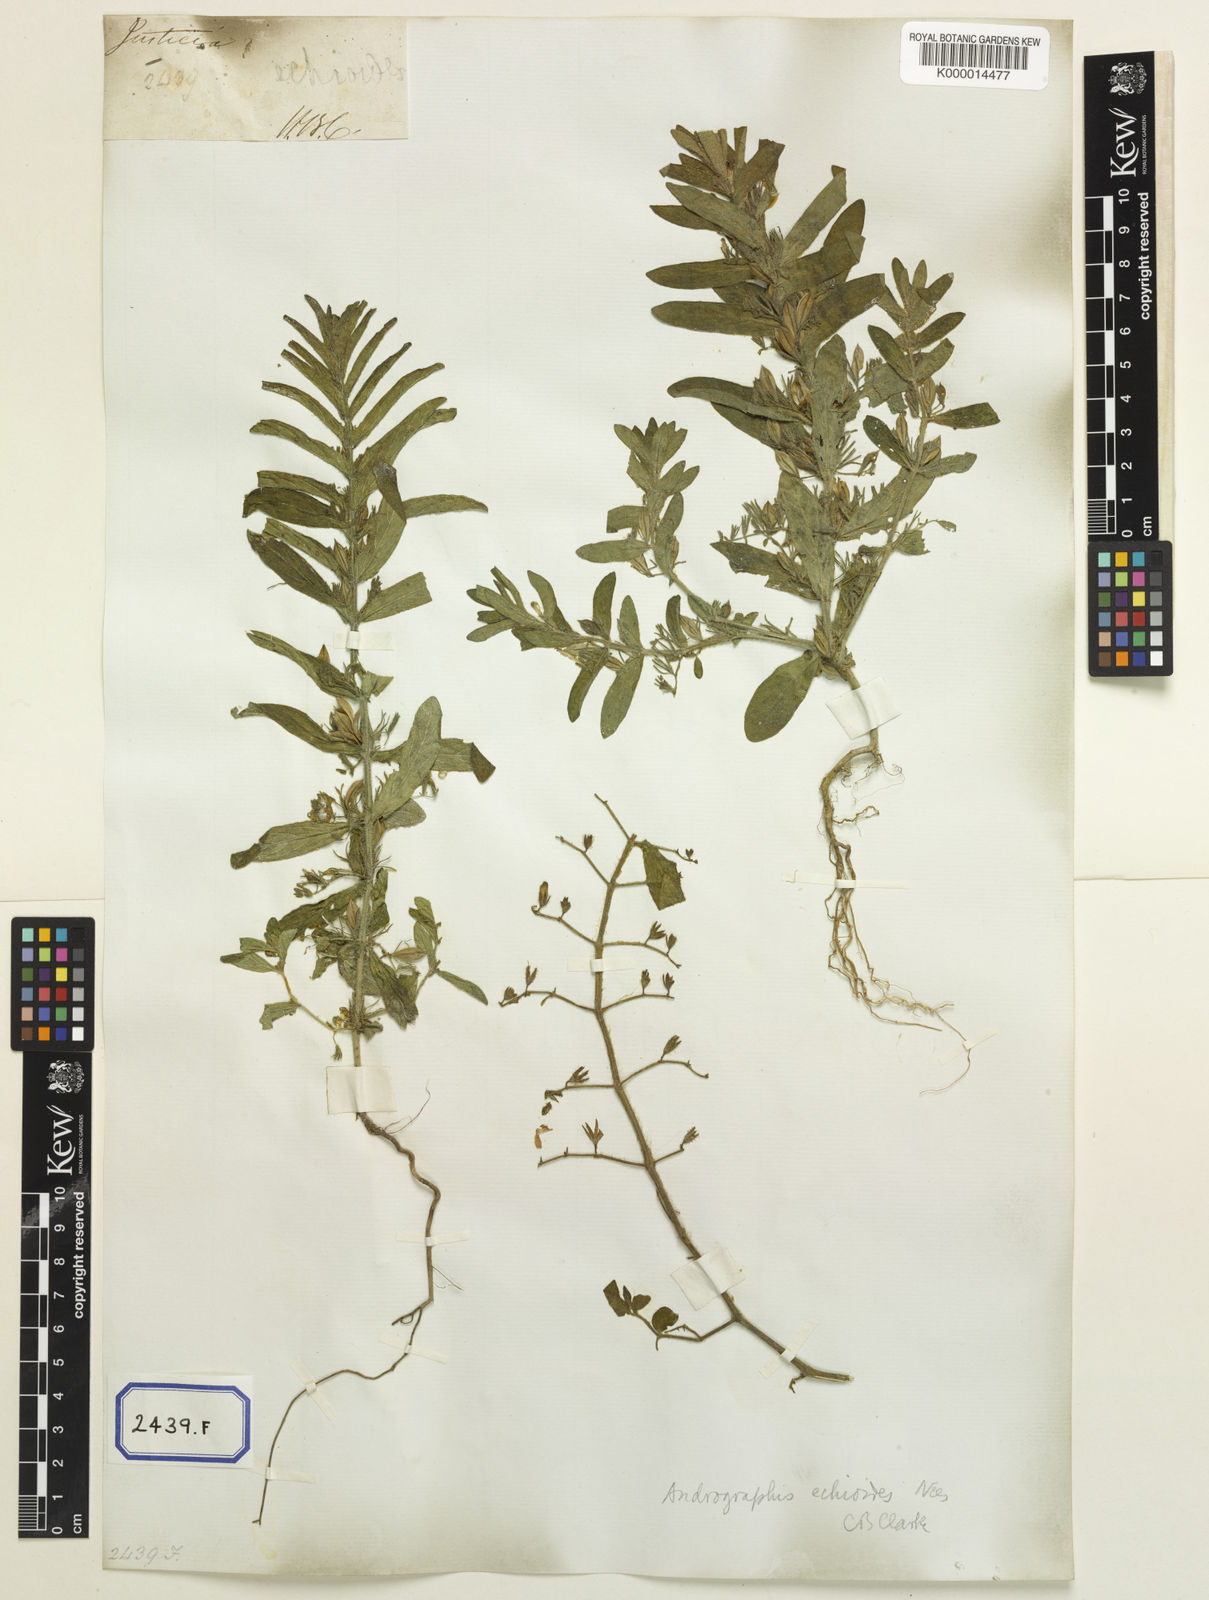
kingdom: Plantae
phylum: Tracheophyta
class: Magnoliopsida
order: Lamiales
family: Acanthaceae
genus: Andrographis
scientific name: Andrographis echioides
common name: False waterwillow
